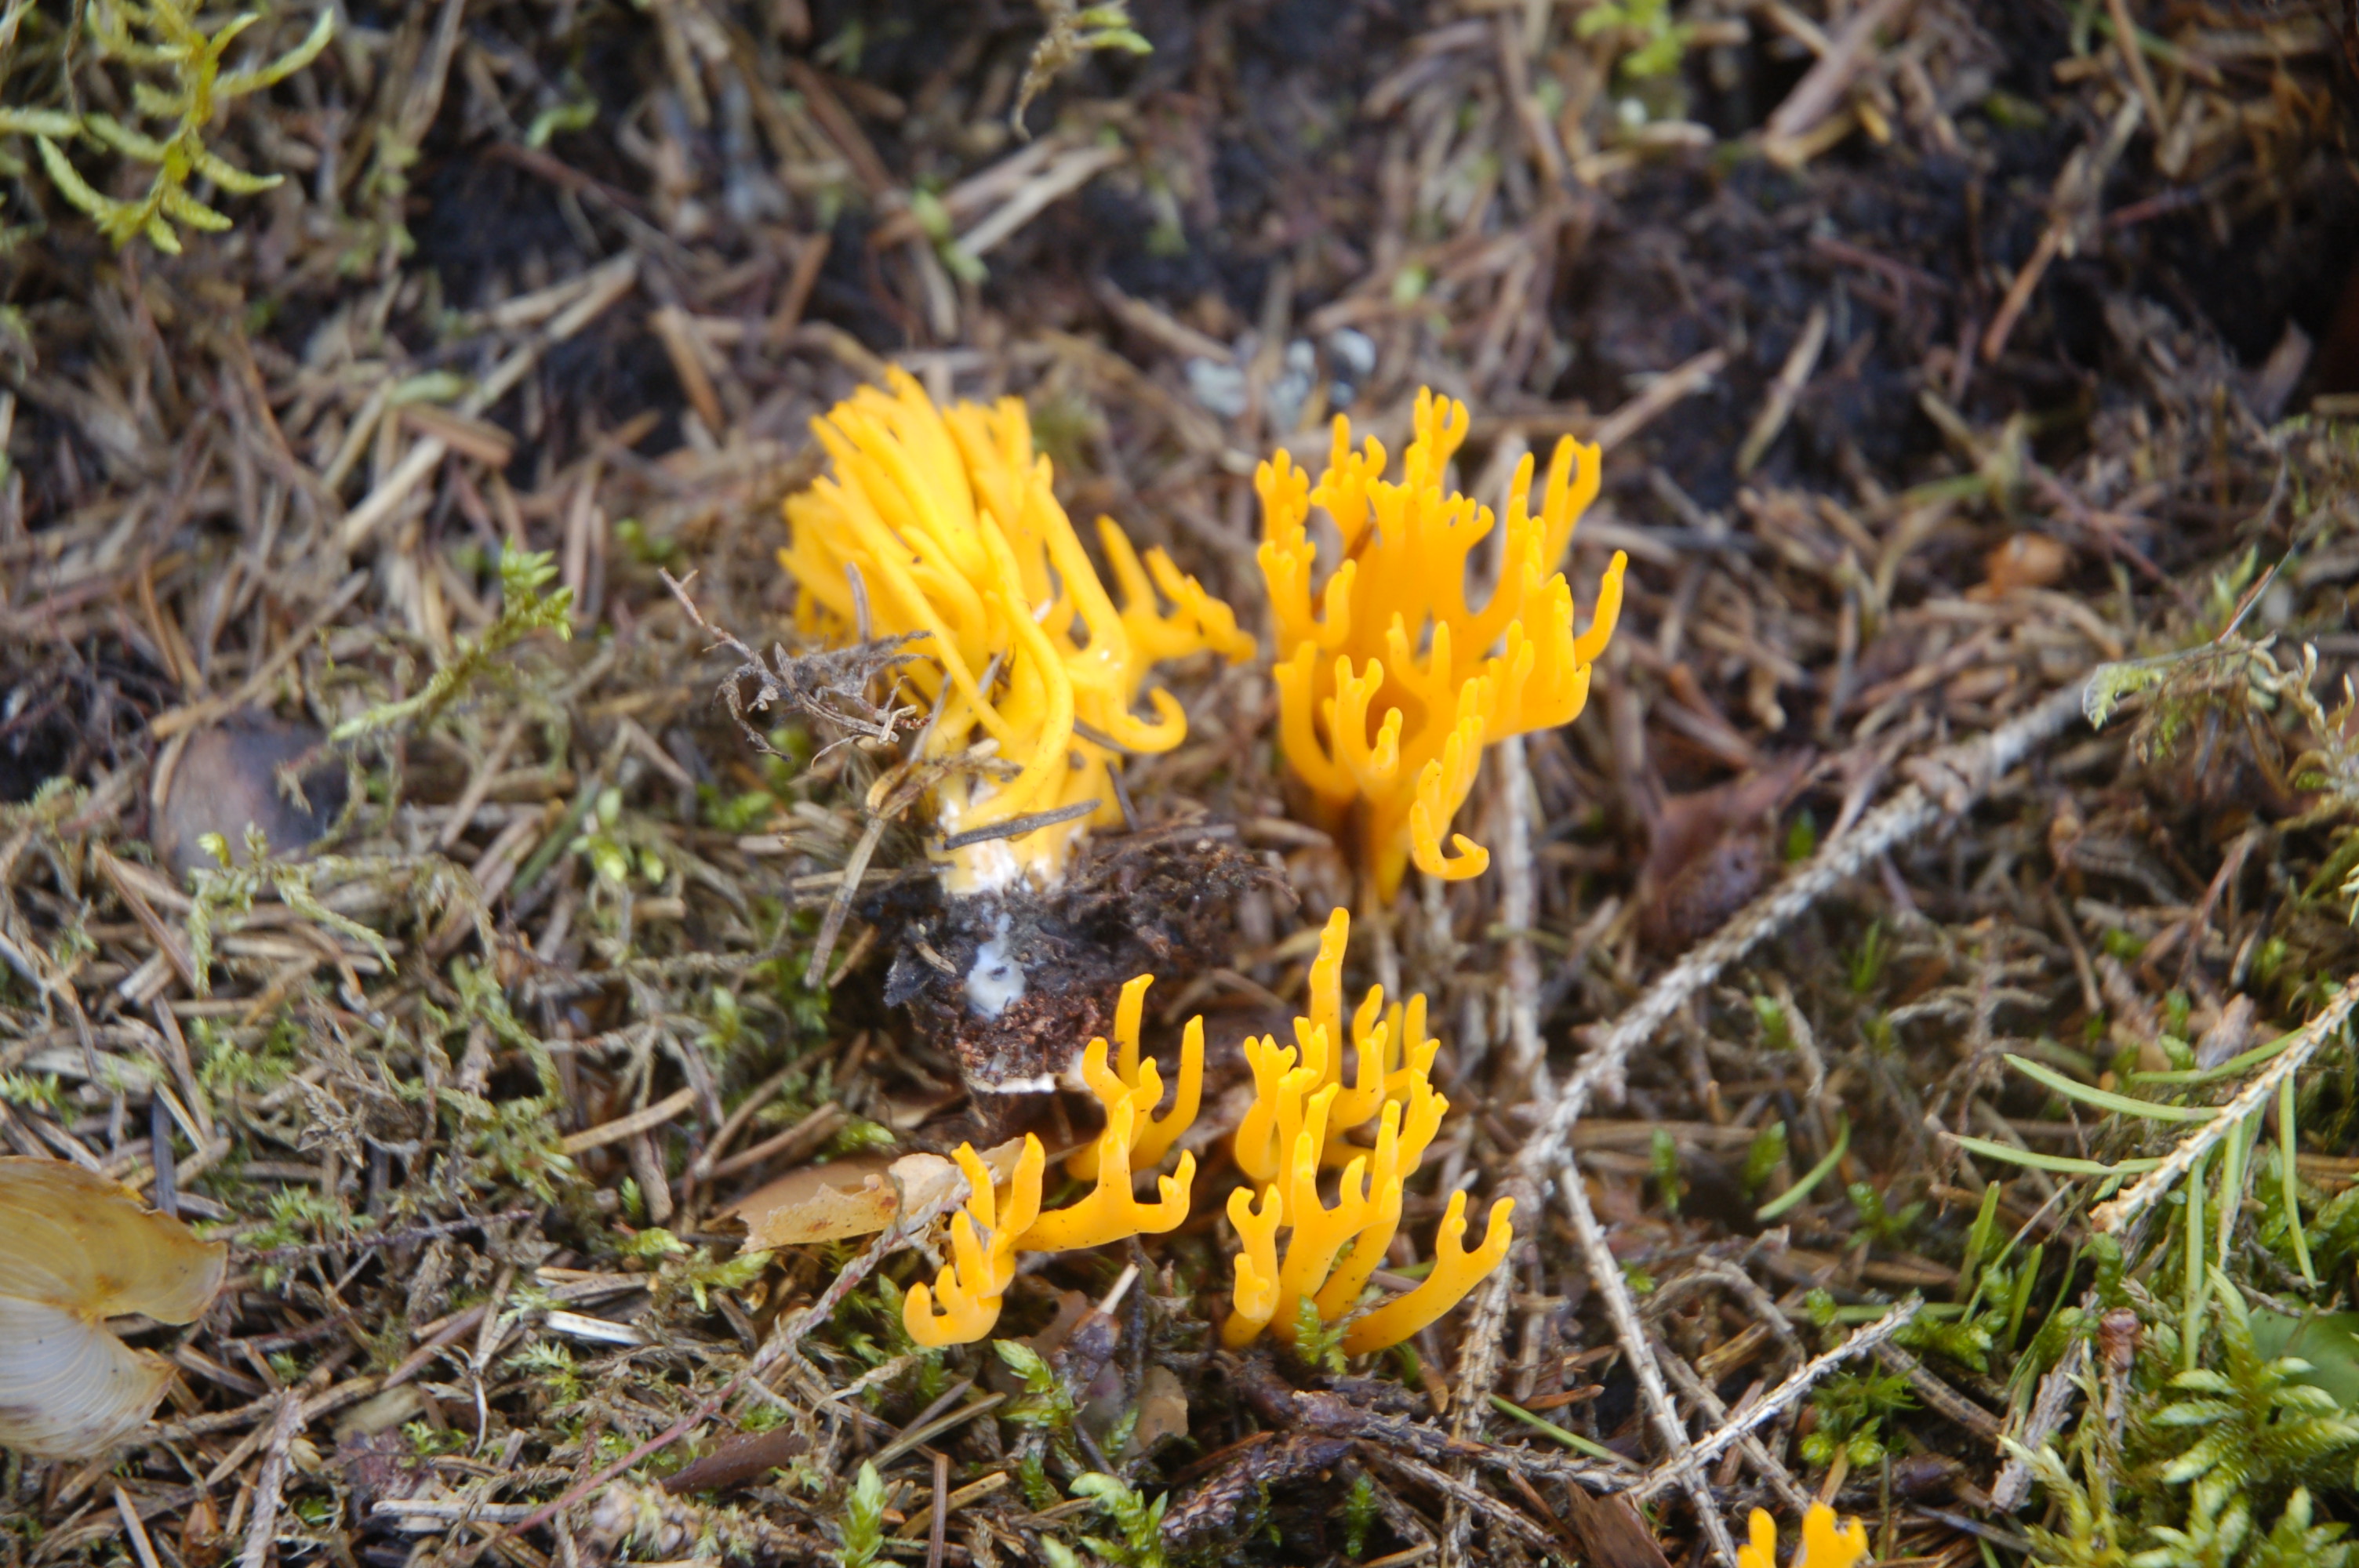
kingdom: Fungi
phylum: Basidiomycota
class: Dacrymycetes
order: Dacrymycetales
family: Dacrymycetaceae
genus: Calocera
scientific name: Calocera viscosa
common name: Yellow stagshorn
